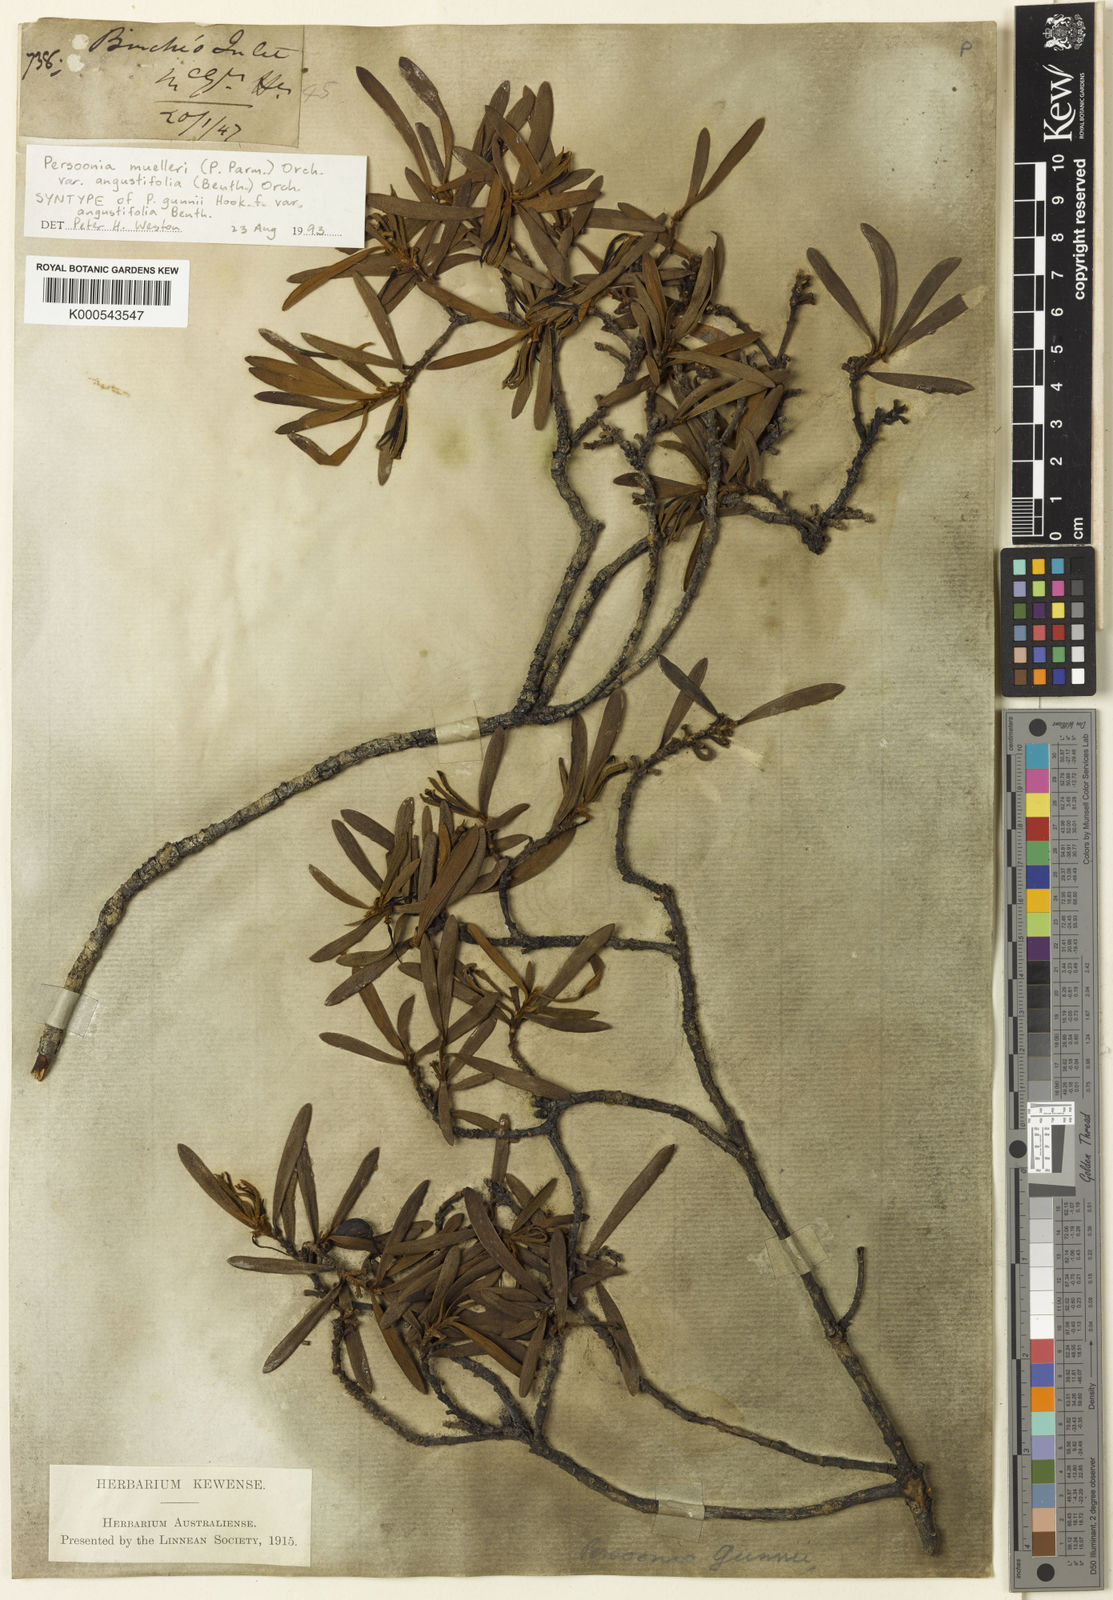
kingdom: Plantae
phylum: Tracheophyta
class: Magnoliopsida
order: Proteales
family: Proteaceae
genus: Persoonia
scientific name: Persoonia
